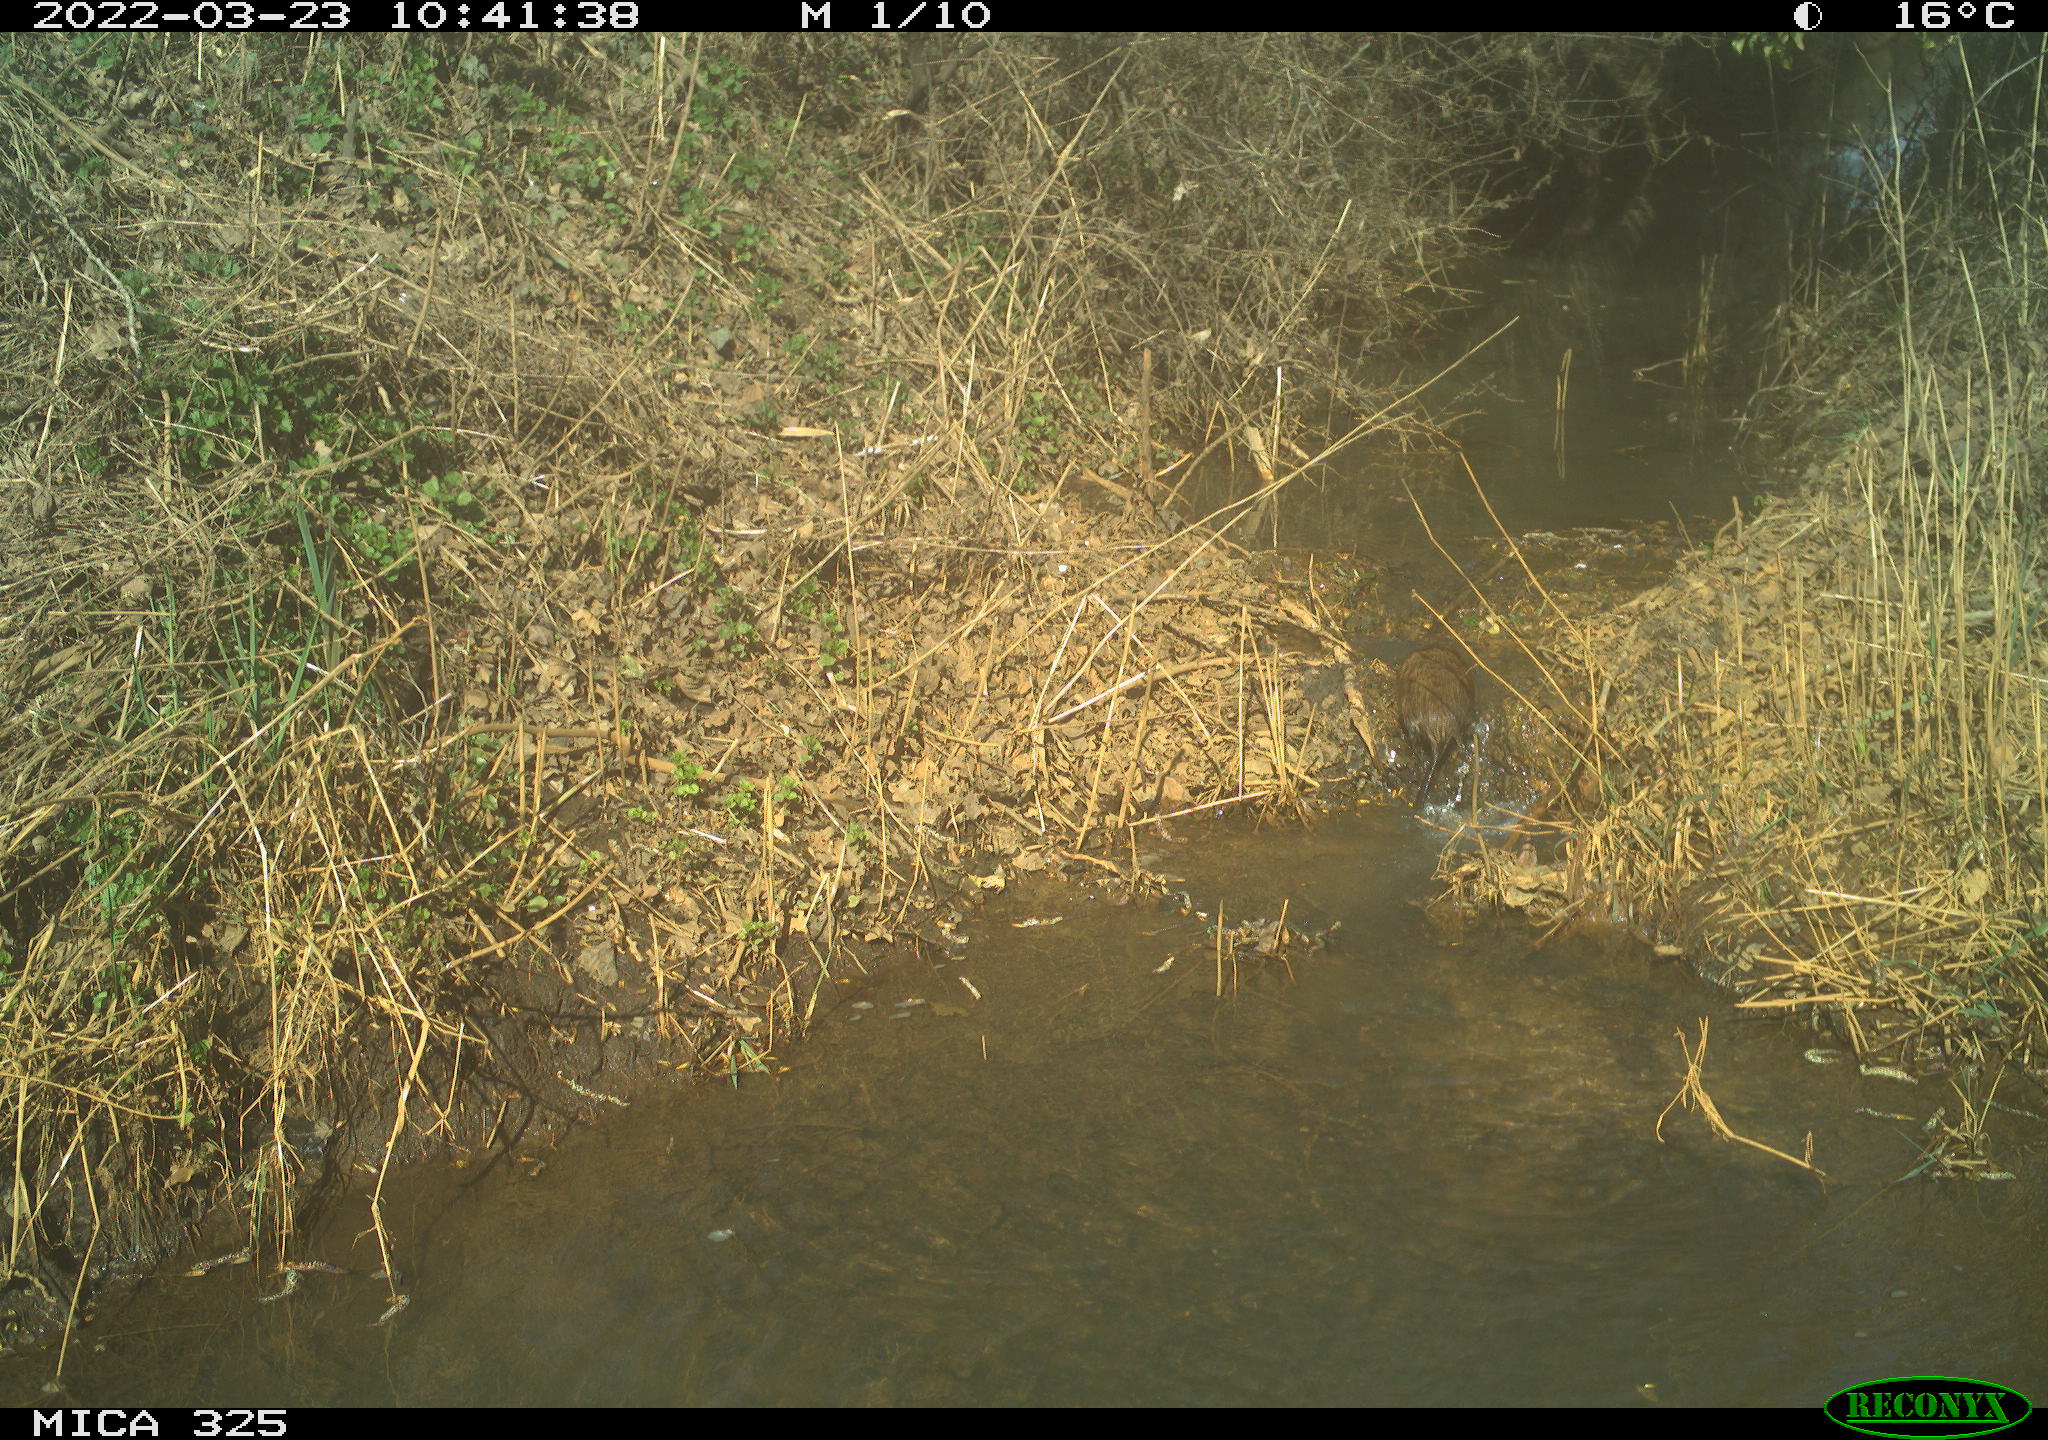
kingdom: Animalia
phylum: Chordata
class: Mammalia
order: Rodentia
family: Cricetidae
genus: Ondatra
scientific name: Ondatra zibethicus
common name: Muskrat
